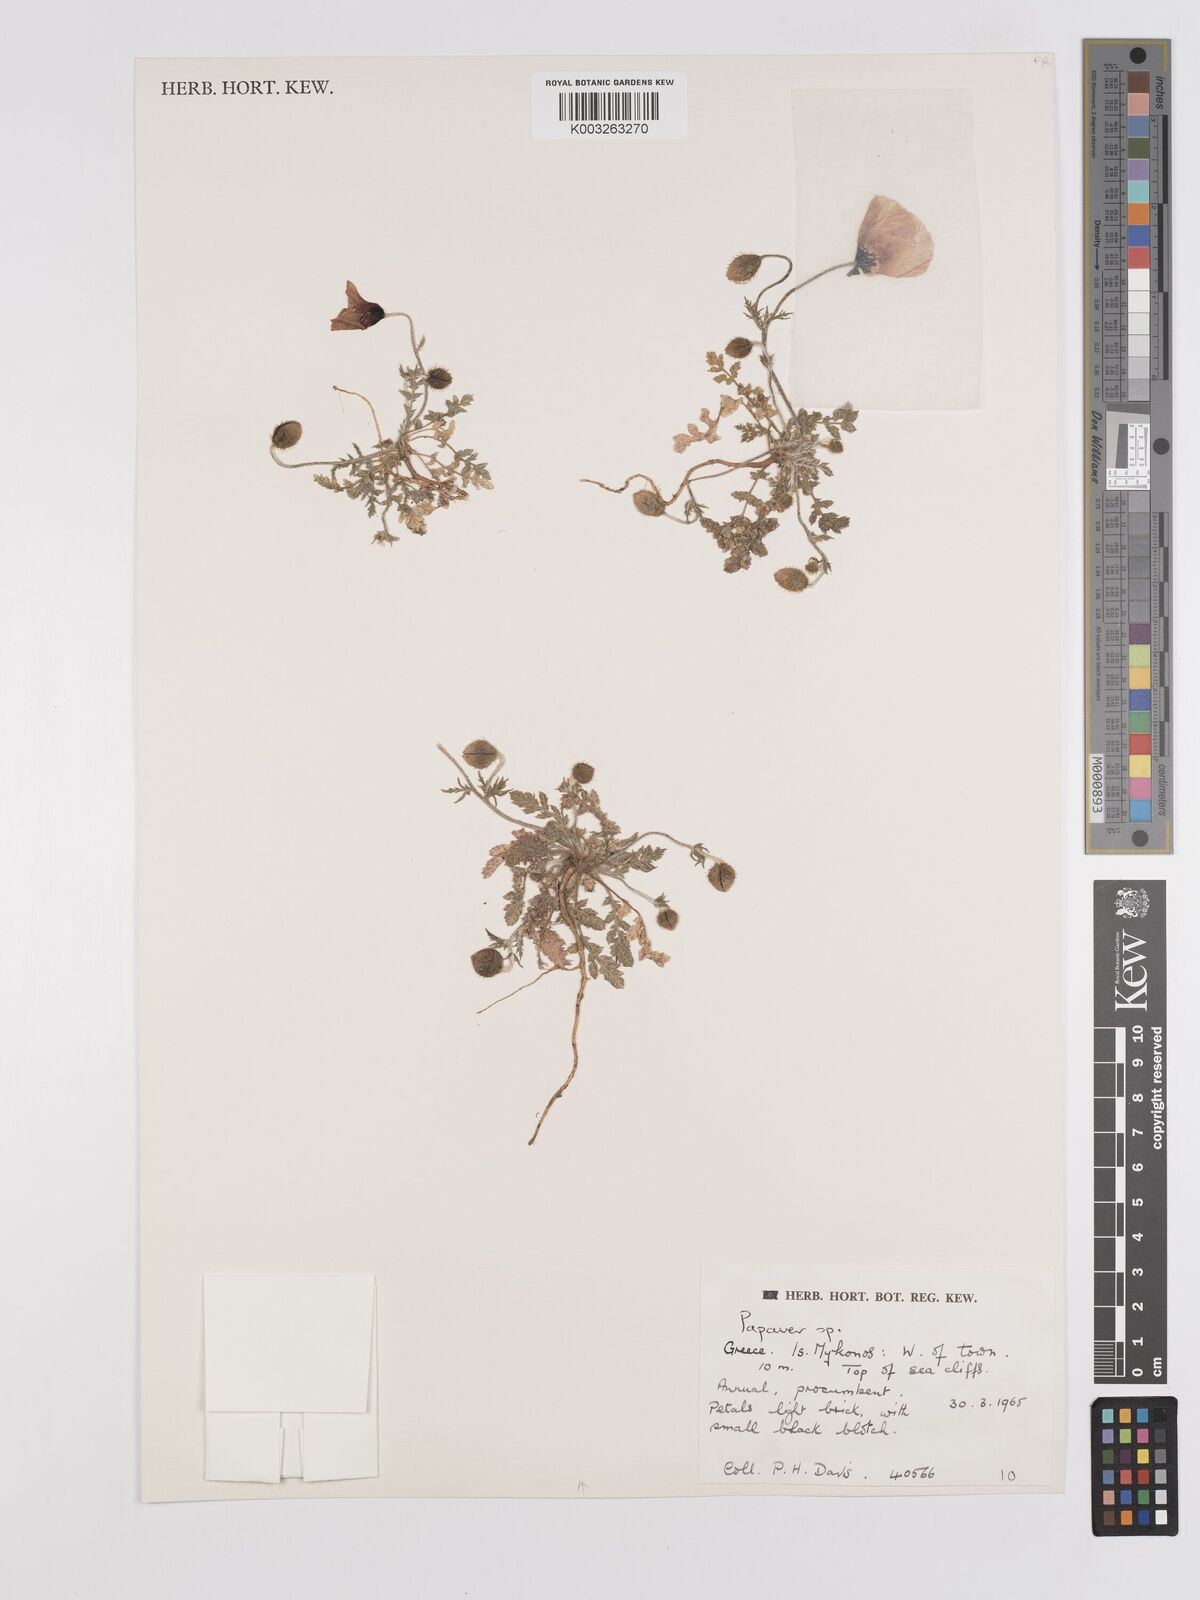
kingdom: Plantae
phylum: Tracheophyta
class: Magnoliopsida
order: Ranunculales
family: Papaveraceae
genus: Papaver
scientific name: Papaver
